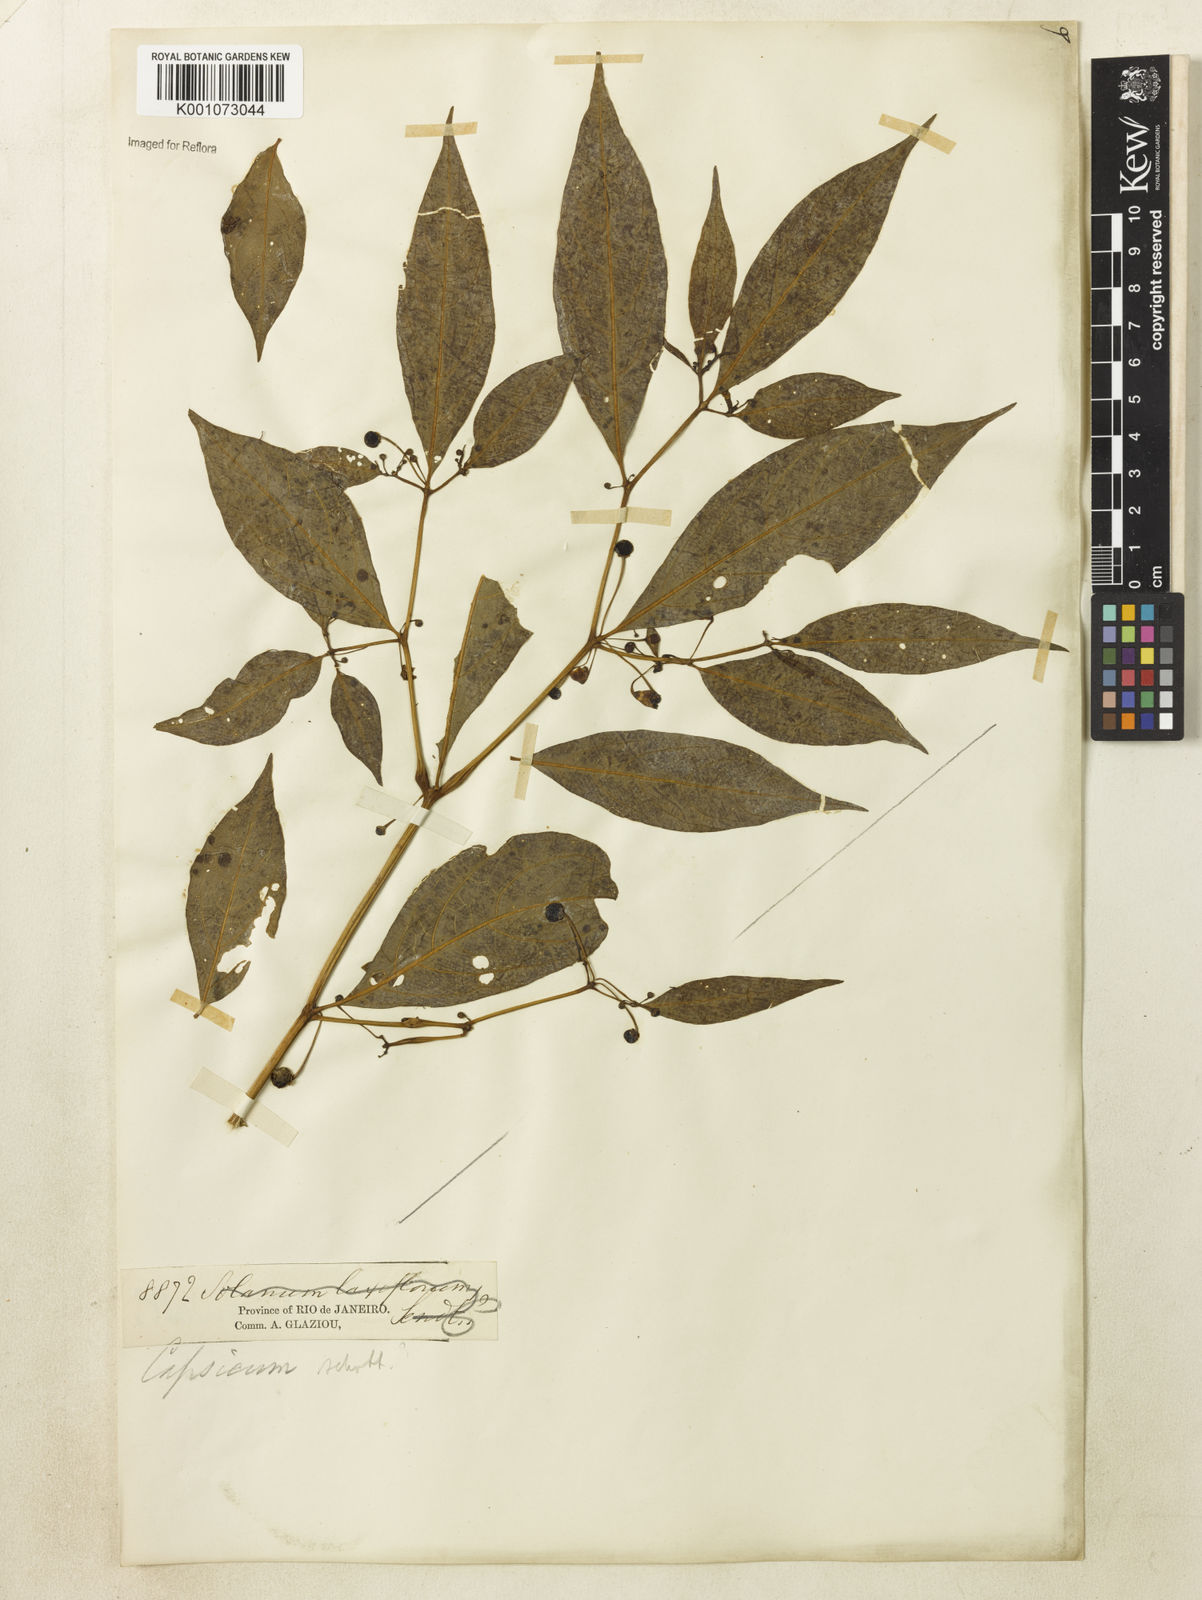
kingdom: Plantae
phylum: Tracheophyta
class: Magnoliopsida
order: Solanales
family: Solanaceae
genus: Capsicum
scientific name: Capsicum
